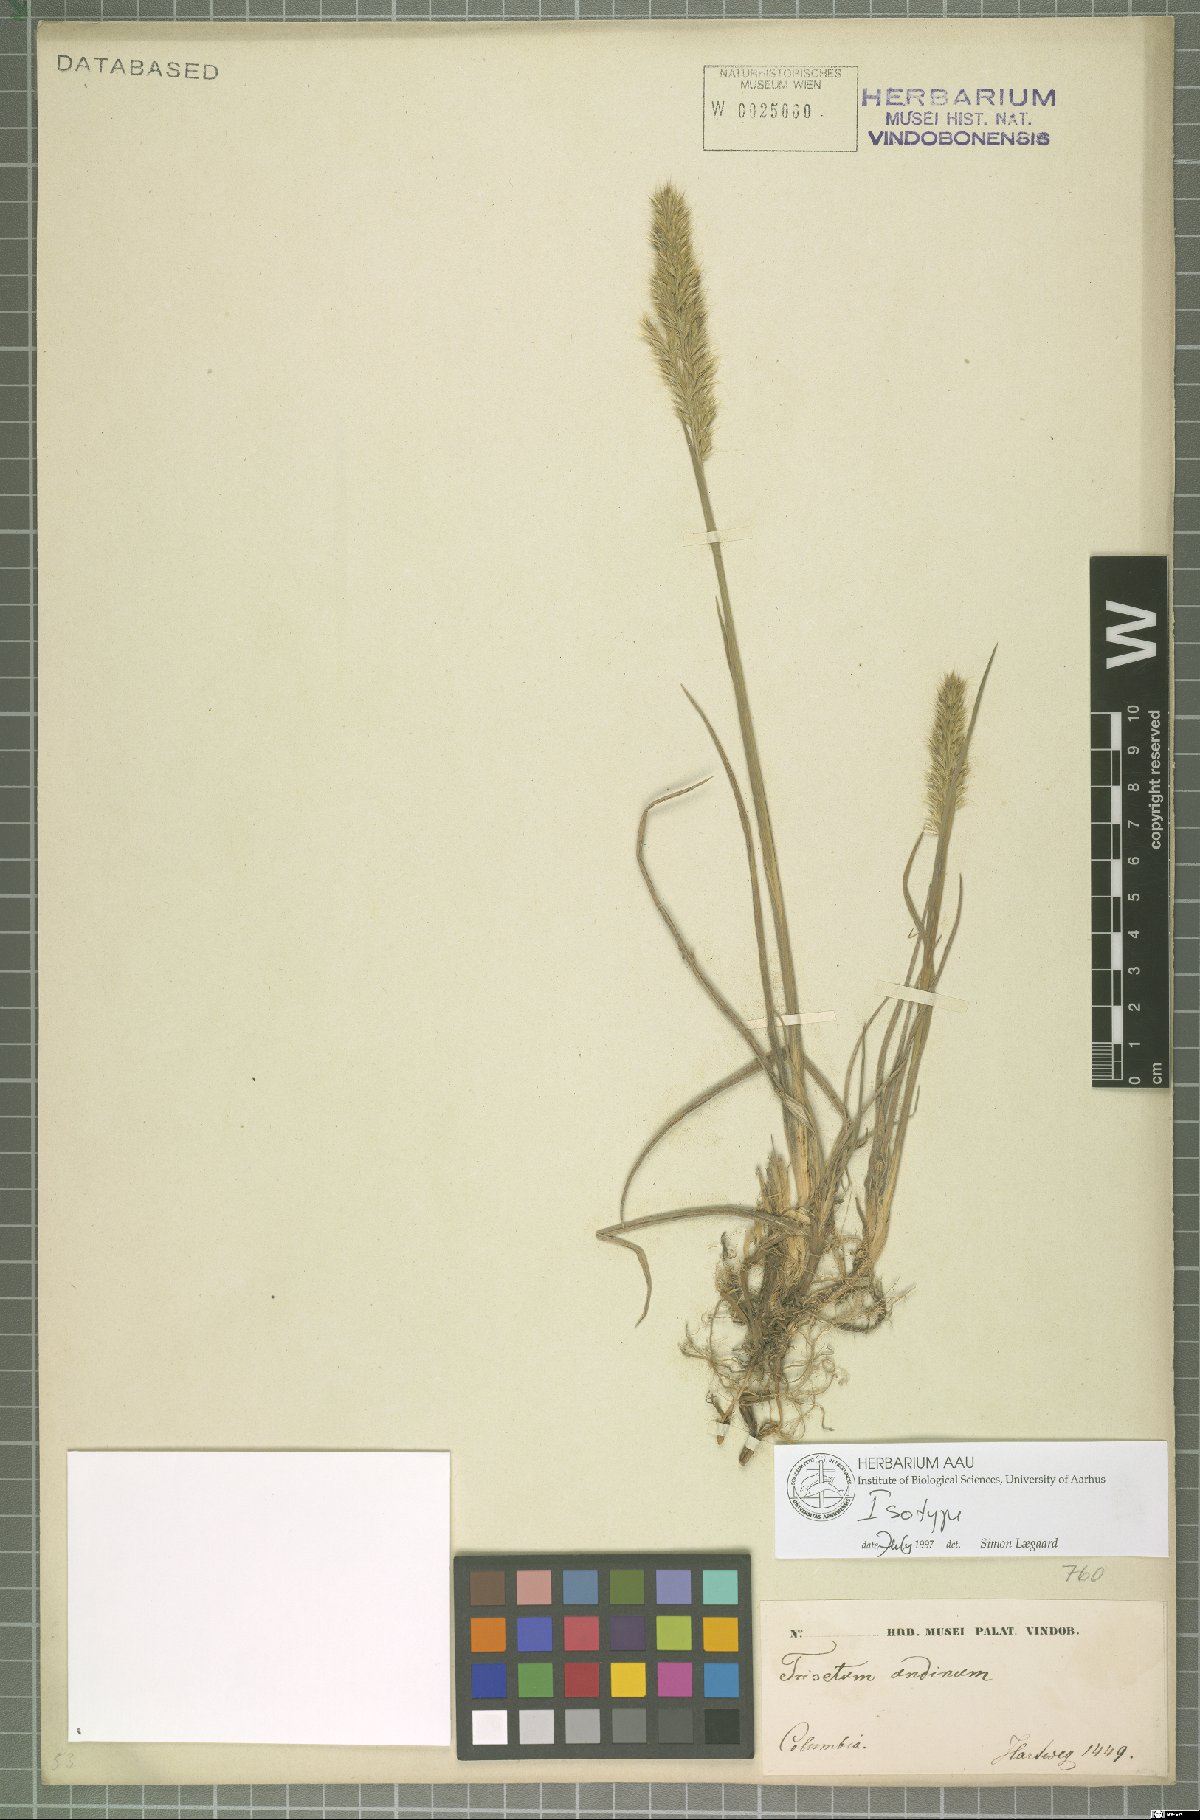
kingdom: Plantae
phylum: Tracheophyta
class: Liliopsida
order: Poales
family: Poaceae
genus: Koeleria
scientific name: Koeleria spicata
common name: Mountain trisetum
